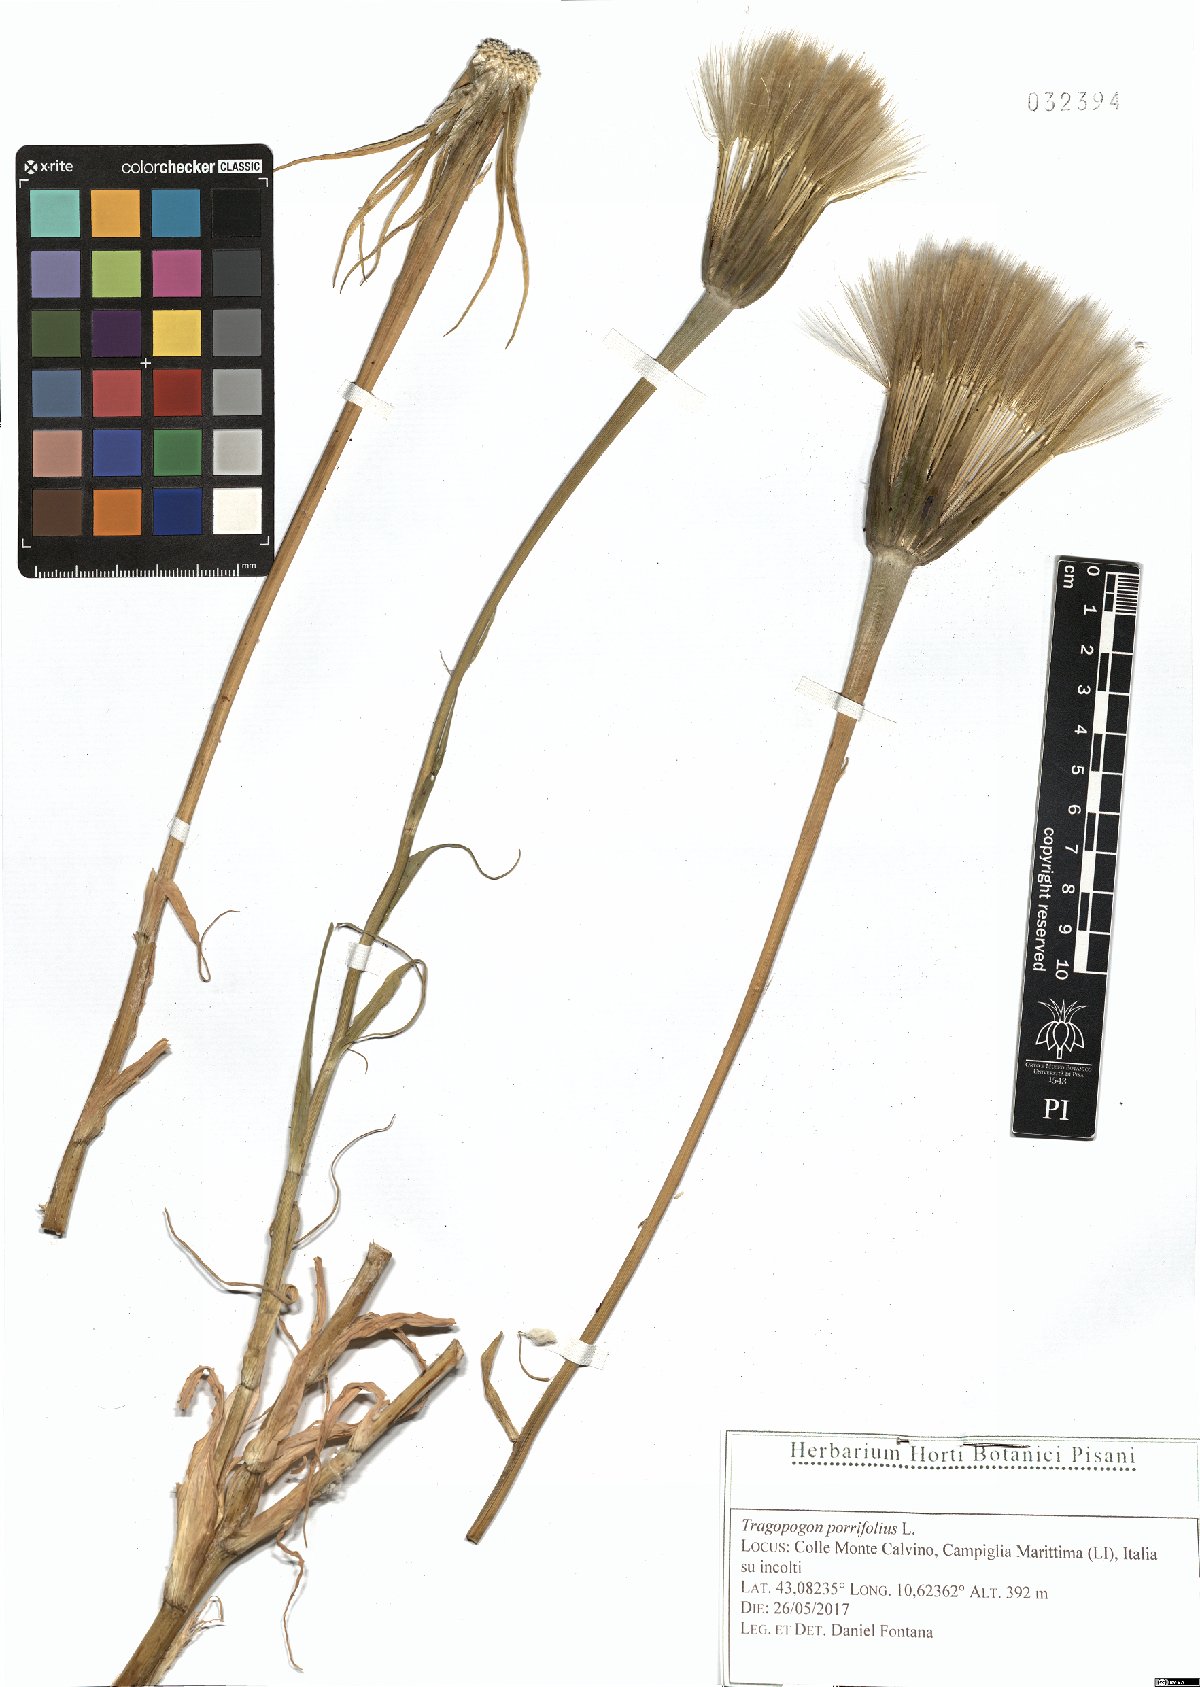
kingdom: Plantae
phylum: Tracheophyta
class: Magnoliopsida
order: Asterales
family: Asteraceae
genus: Tragopogon
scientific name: Tragopogon porrifolius
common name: Salsify
